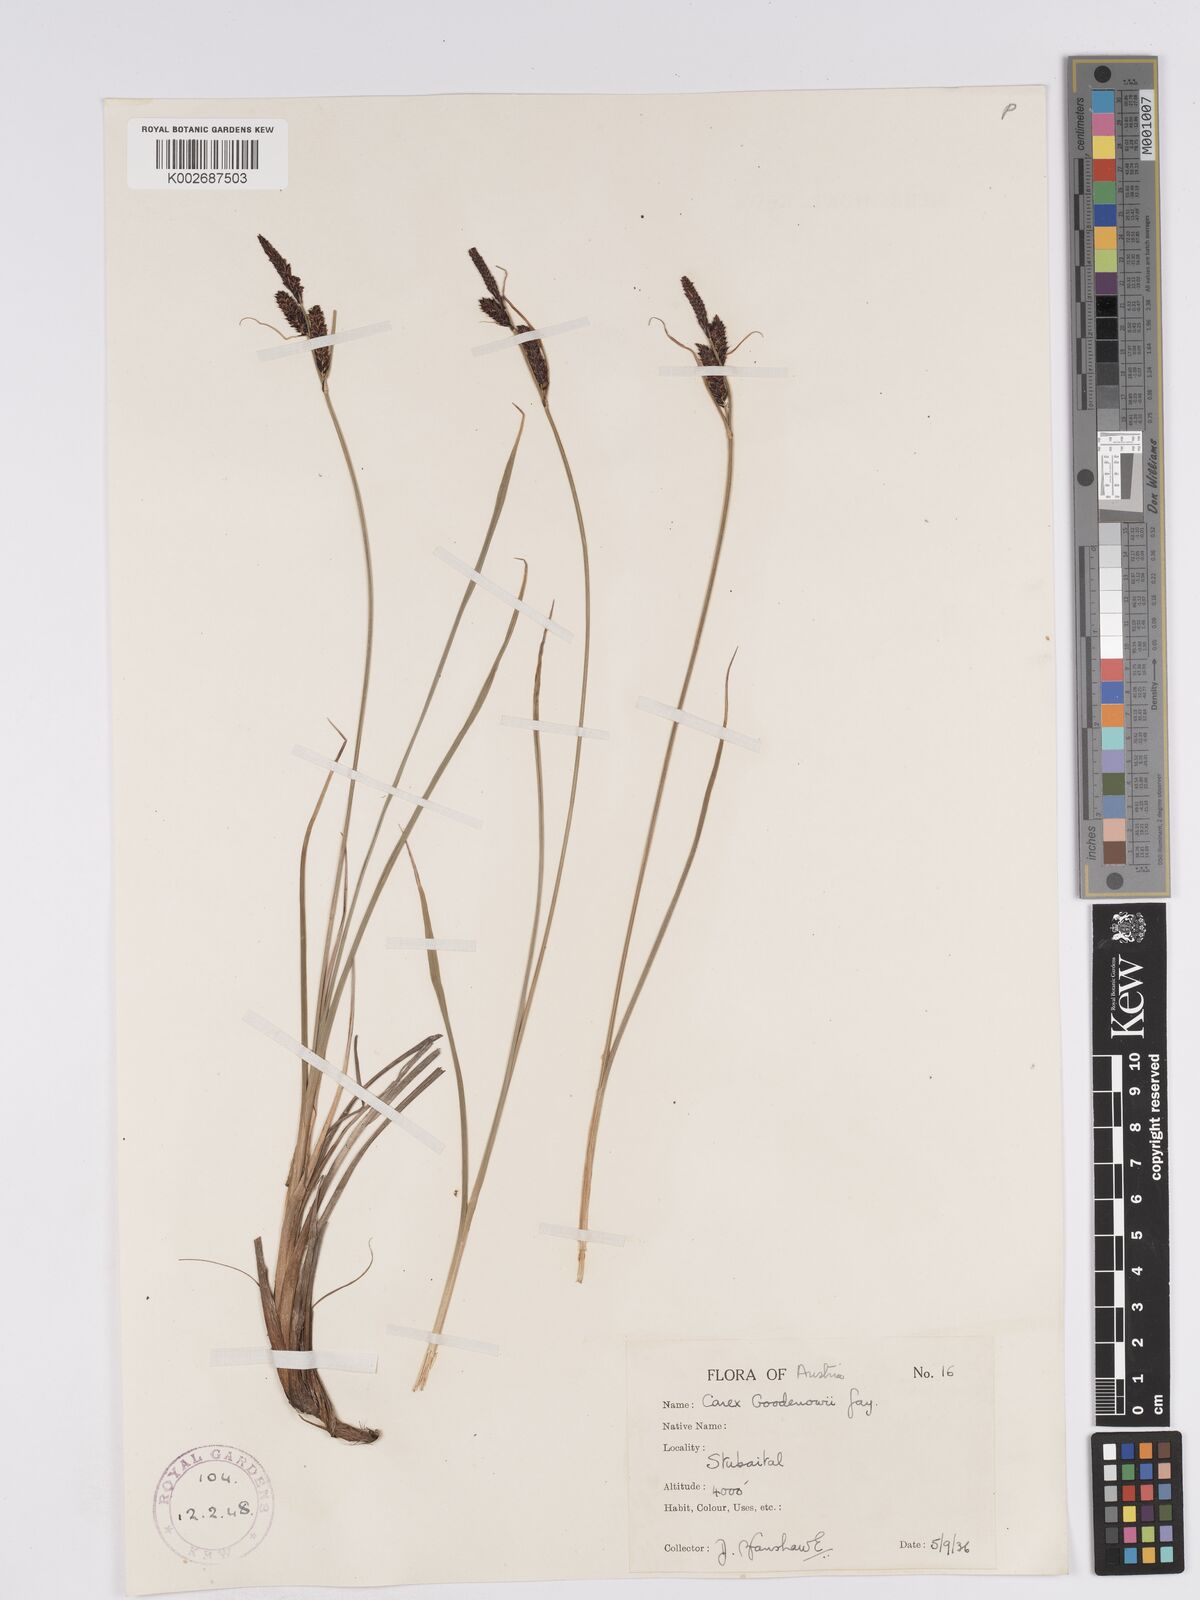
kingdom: Plantae
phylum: Tracheophyta
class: Liliopsida
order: Poales
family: Cyperaceae
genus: Carex
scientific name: Carex nigra
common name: Common sedge
